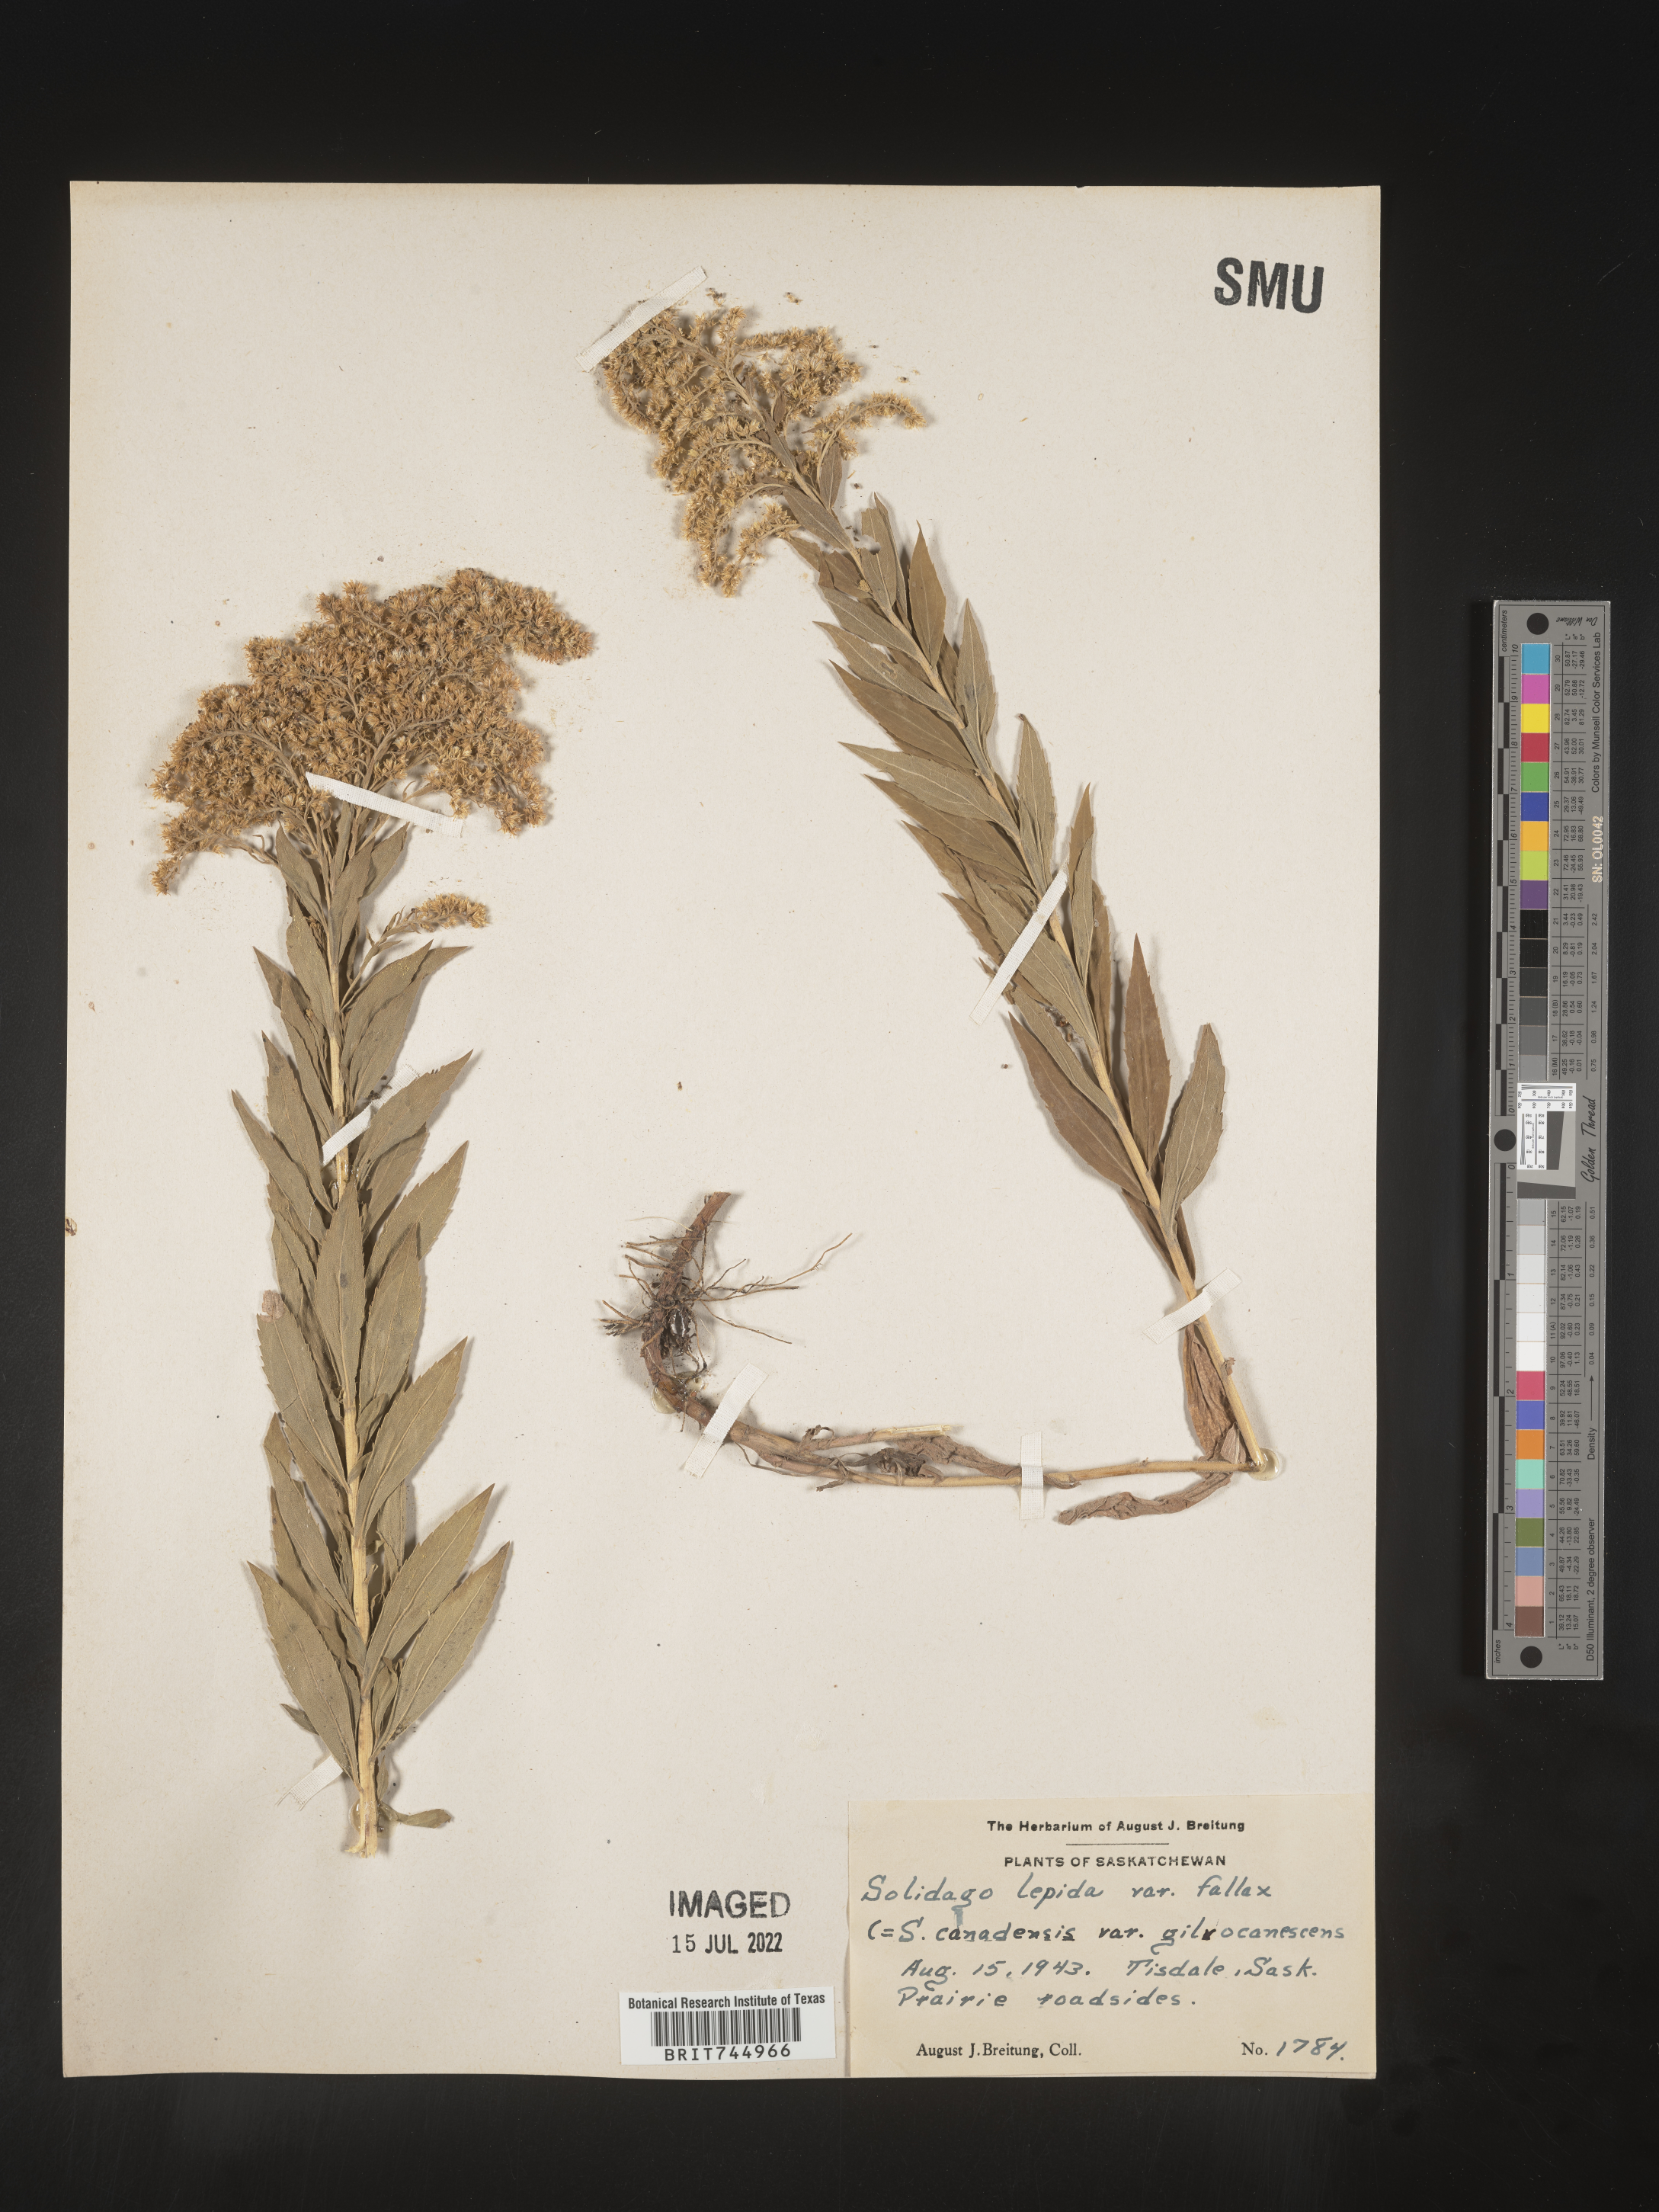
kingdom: Plantae
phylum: Tracheophyta
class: Magnoliopsida
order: Asterales
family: Asteraceae
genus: Solidago
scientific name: Solidago canadensis
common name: Canada goldenrod
